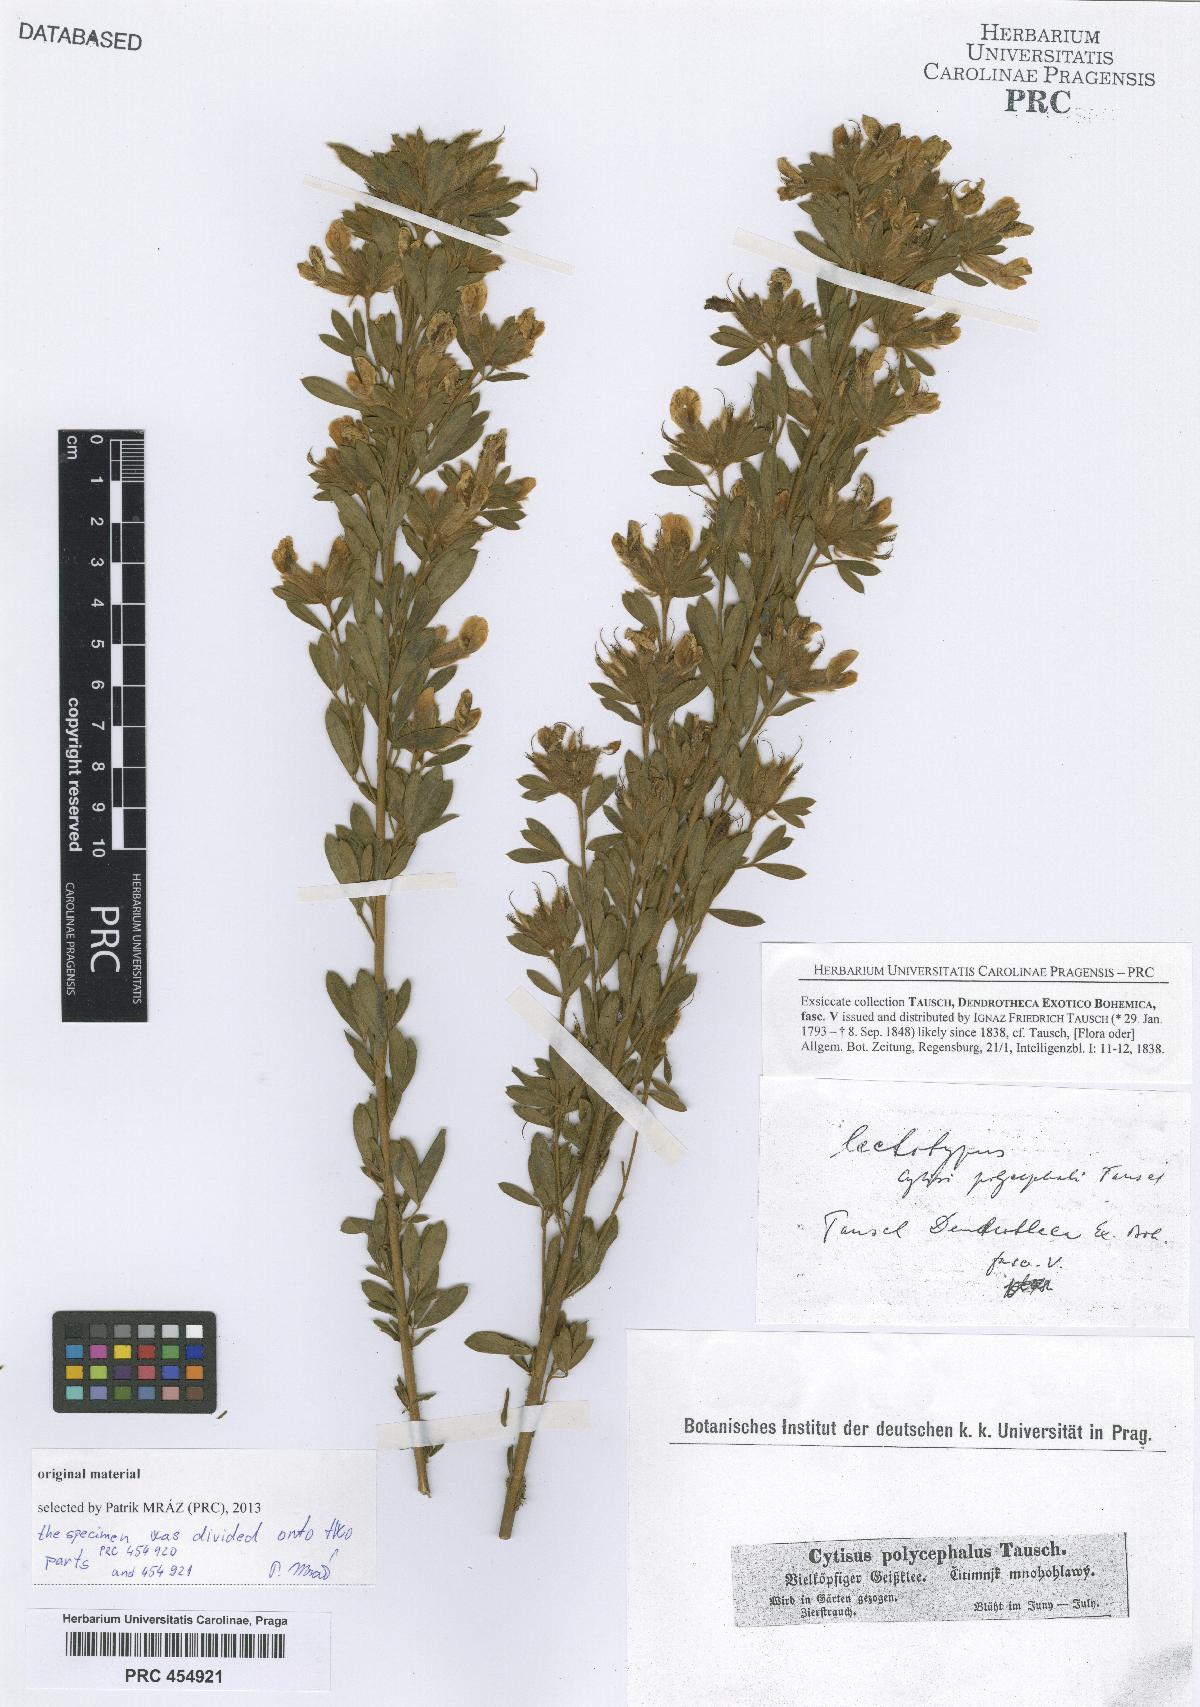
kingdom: Plantae
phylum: Tracheophyta
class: Magnoliopsida
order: Fabales
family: Fabaceae
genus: Chamaecytisus
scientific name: Chamaecytisus albus
